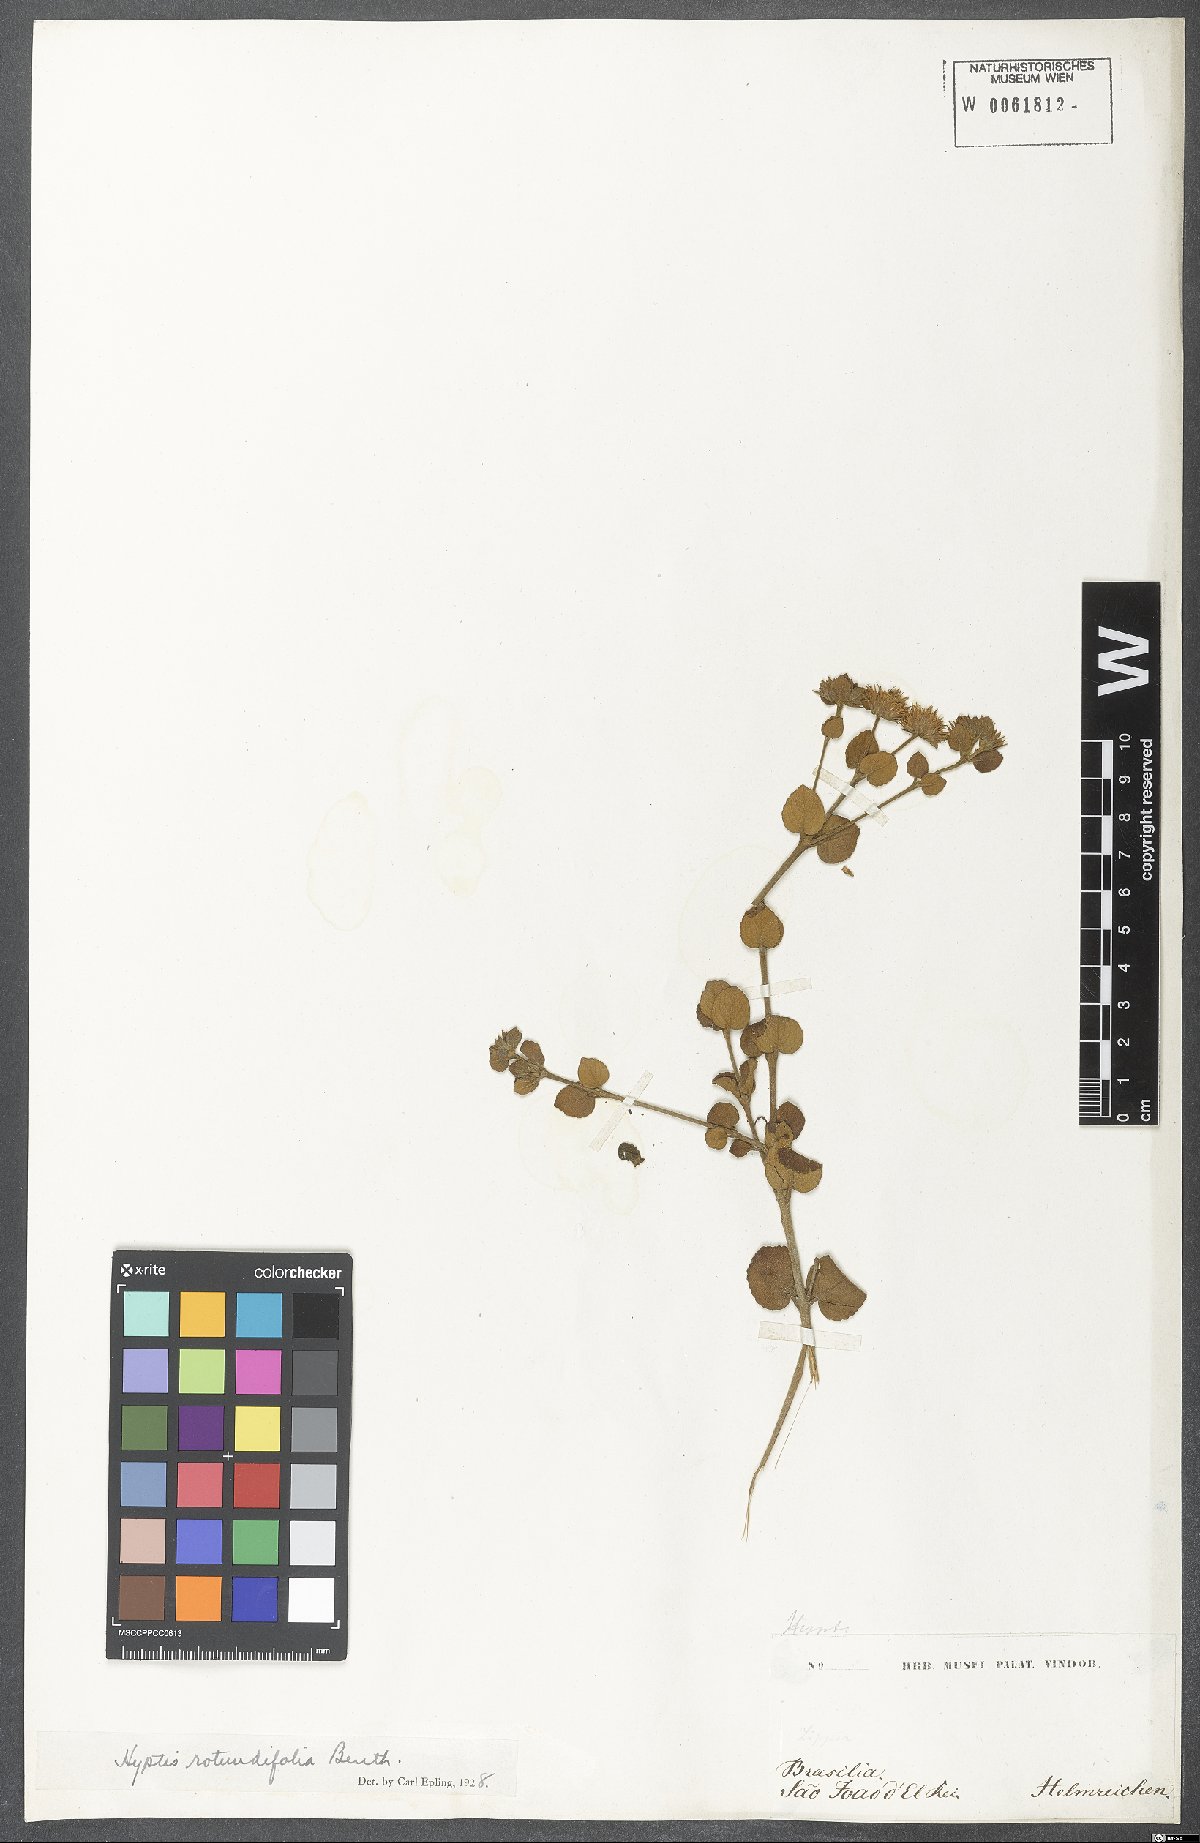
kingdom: Plantae
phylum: Tracheophyta
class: Magnoliopsida
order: Lamiales
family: Lamiaceae
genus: Hyptis
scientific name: Hyptis rotundifolia
